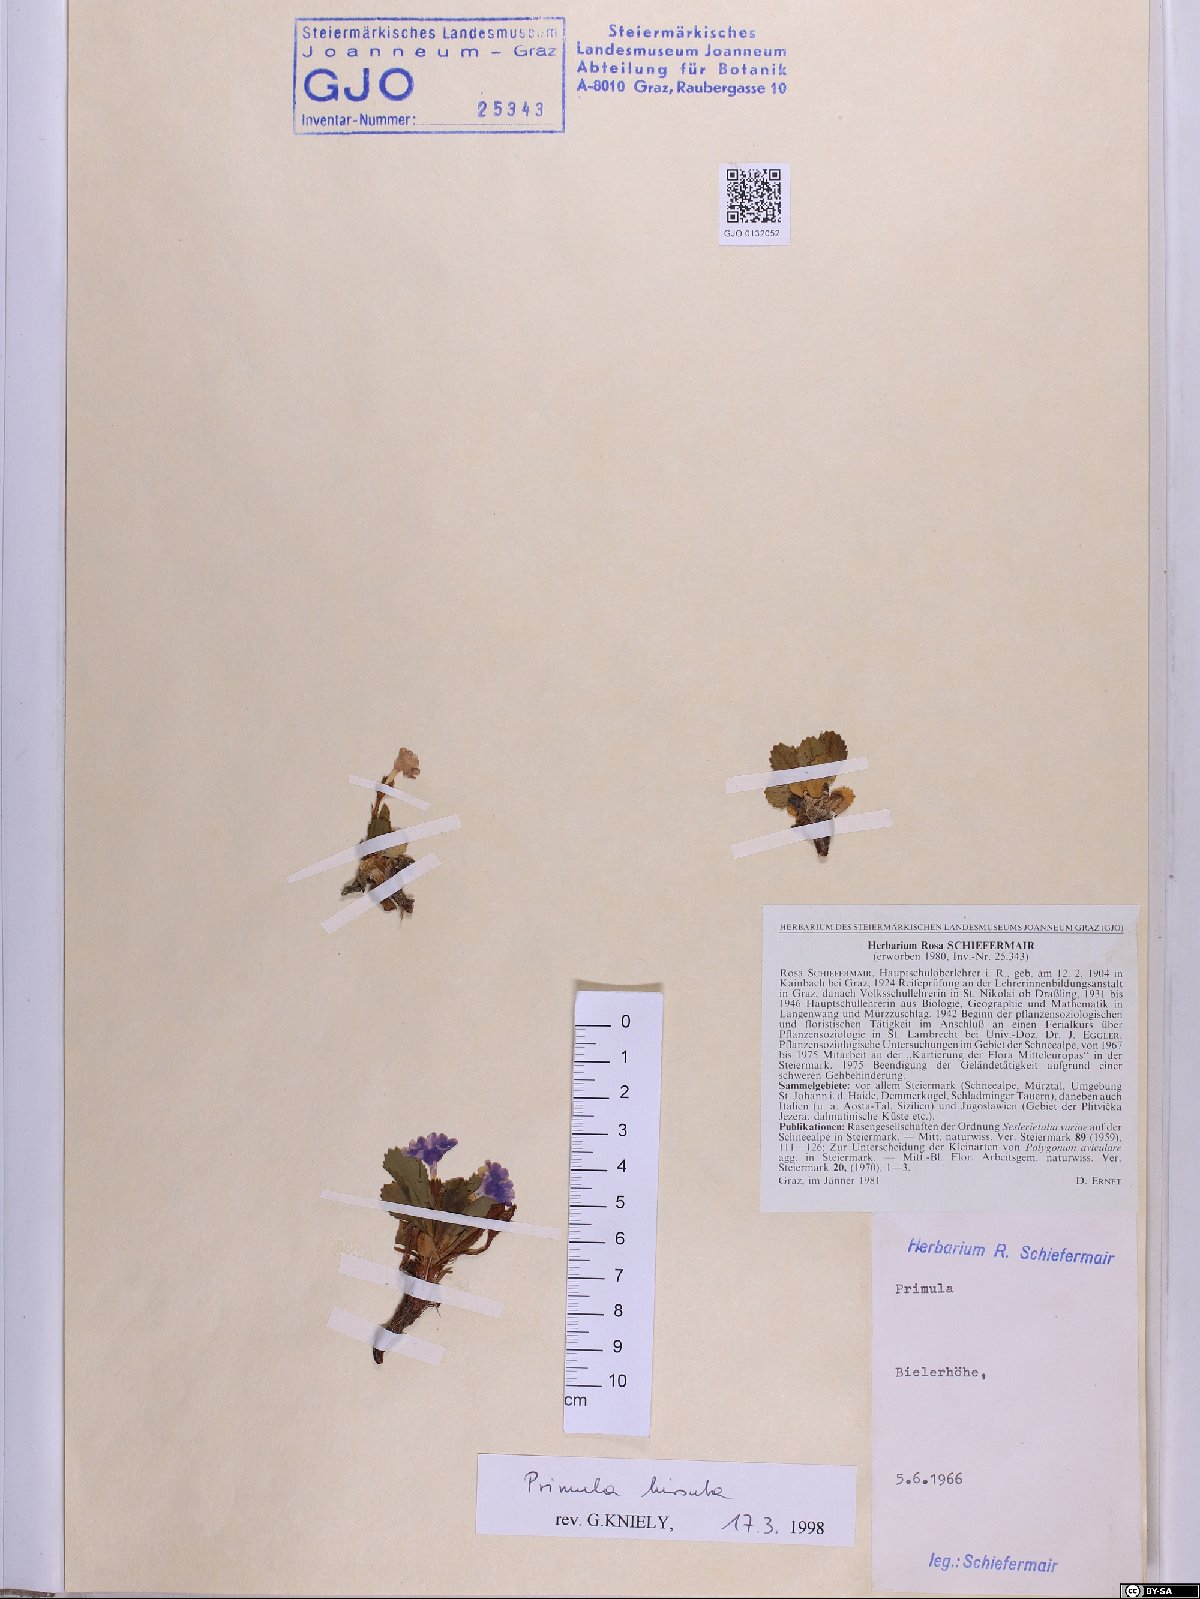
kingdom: Plantae
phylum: Tracheophyta
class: Magnoliopsida
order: Ericales
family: Primulaceae
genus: Primula
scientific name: Primula hirsuta
